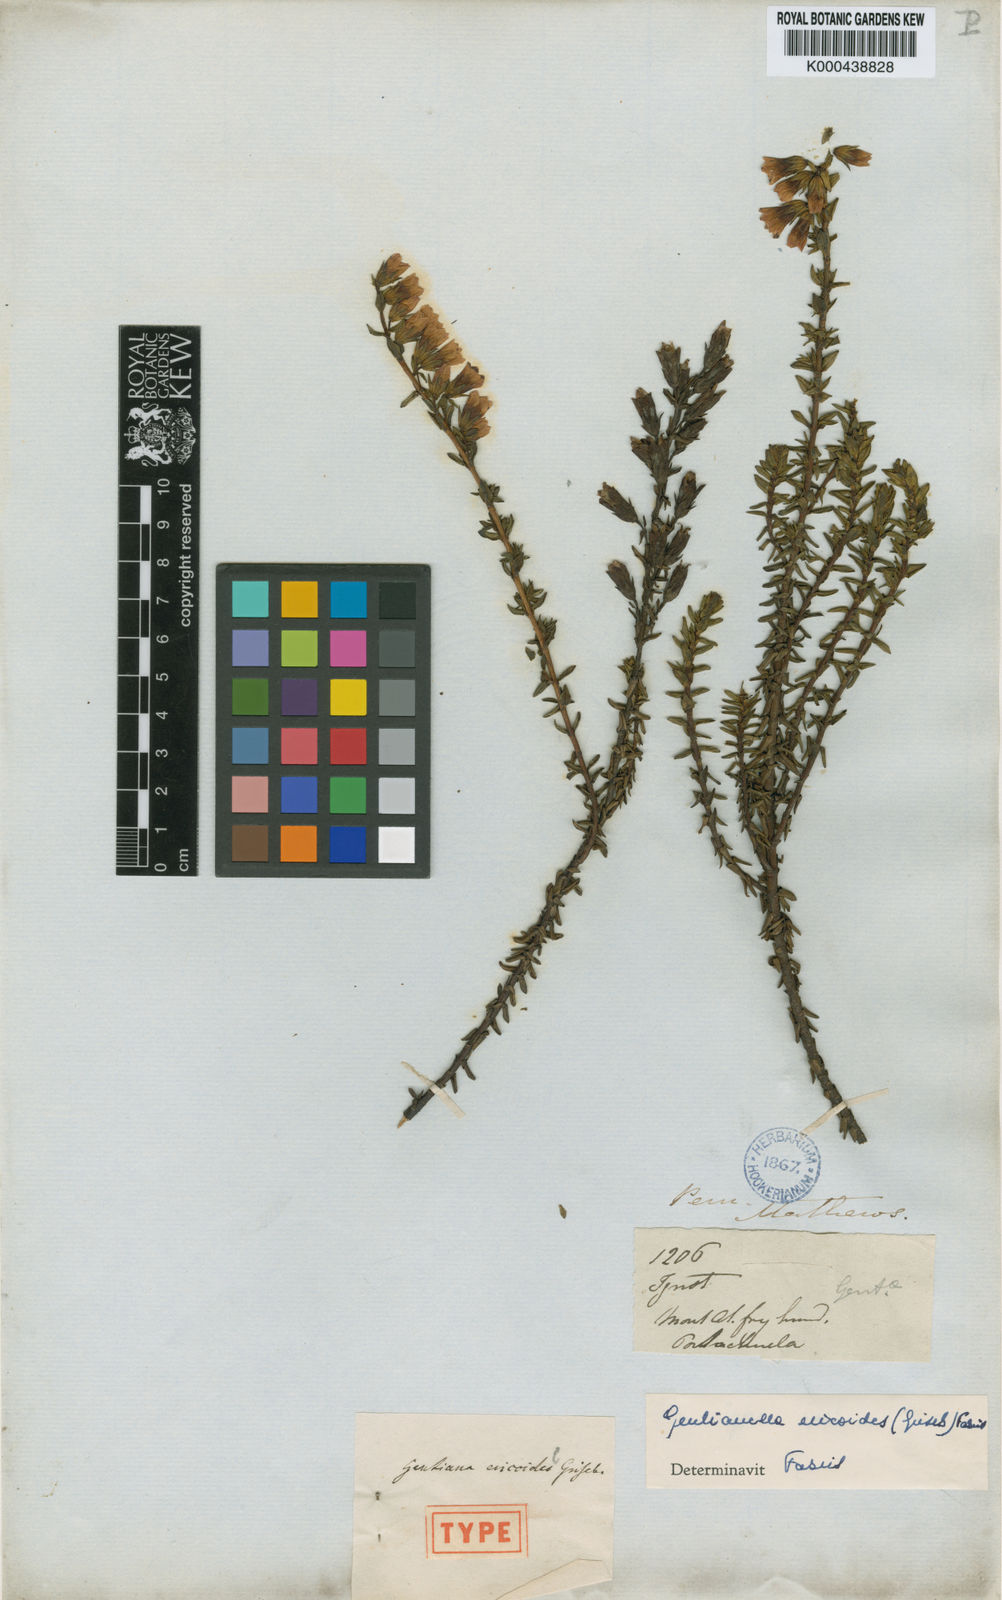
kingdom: Plantae
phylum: Tracheophyta
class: Magnoliopsida
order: Gentianales
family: Gentianaceae
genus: Gentianella
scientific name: Gentianella ericoides
